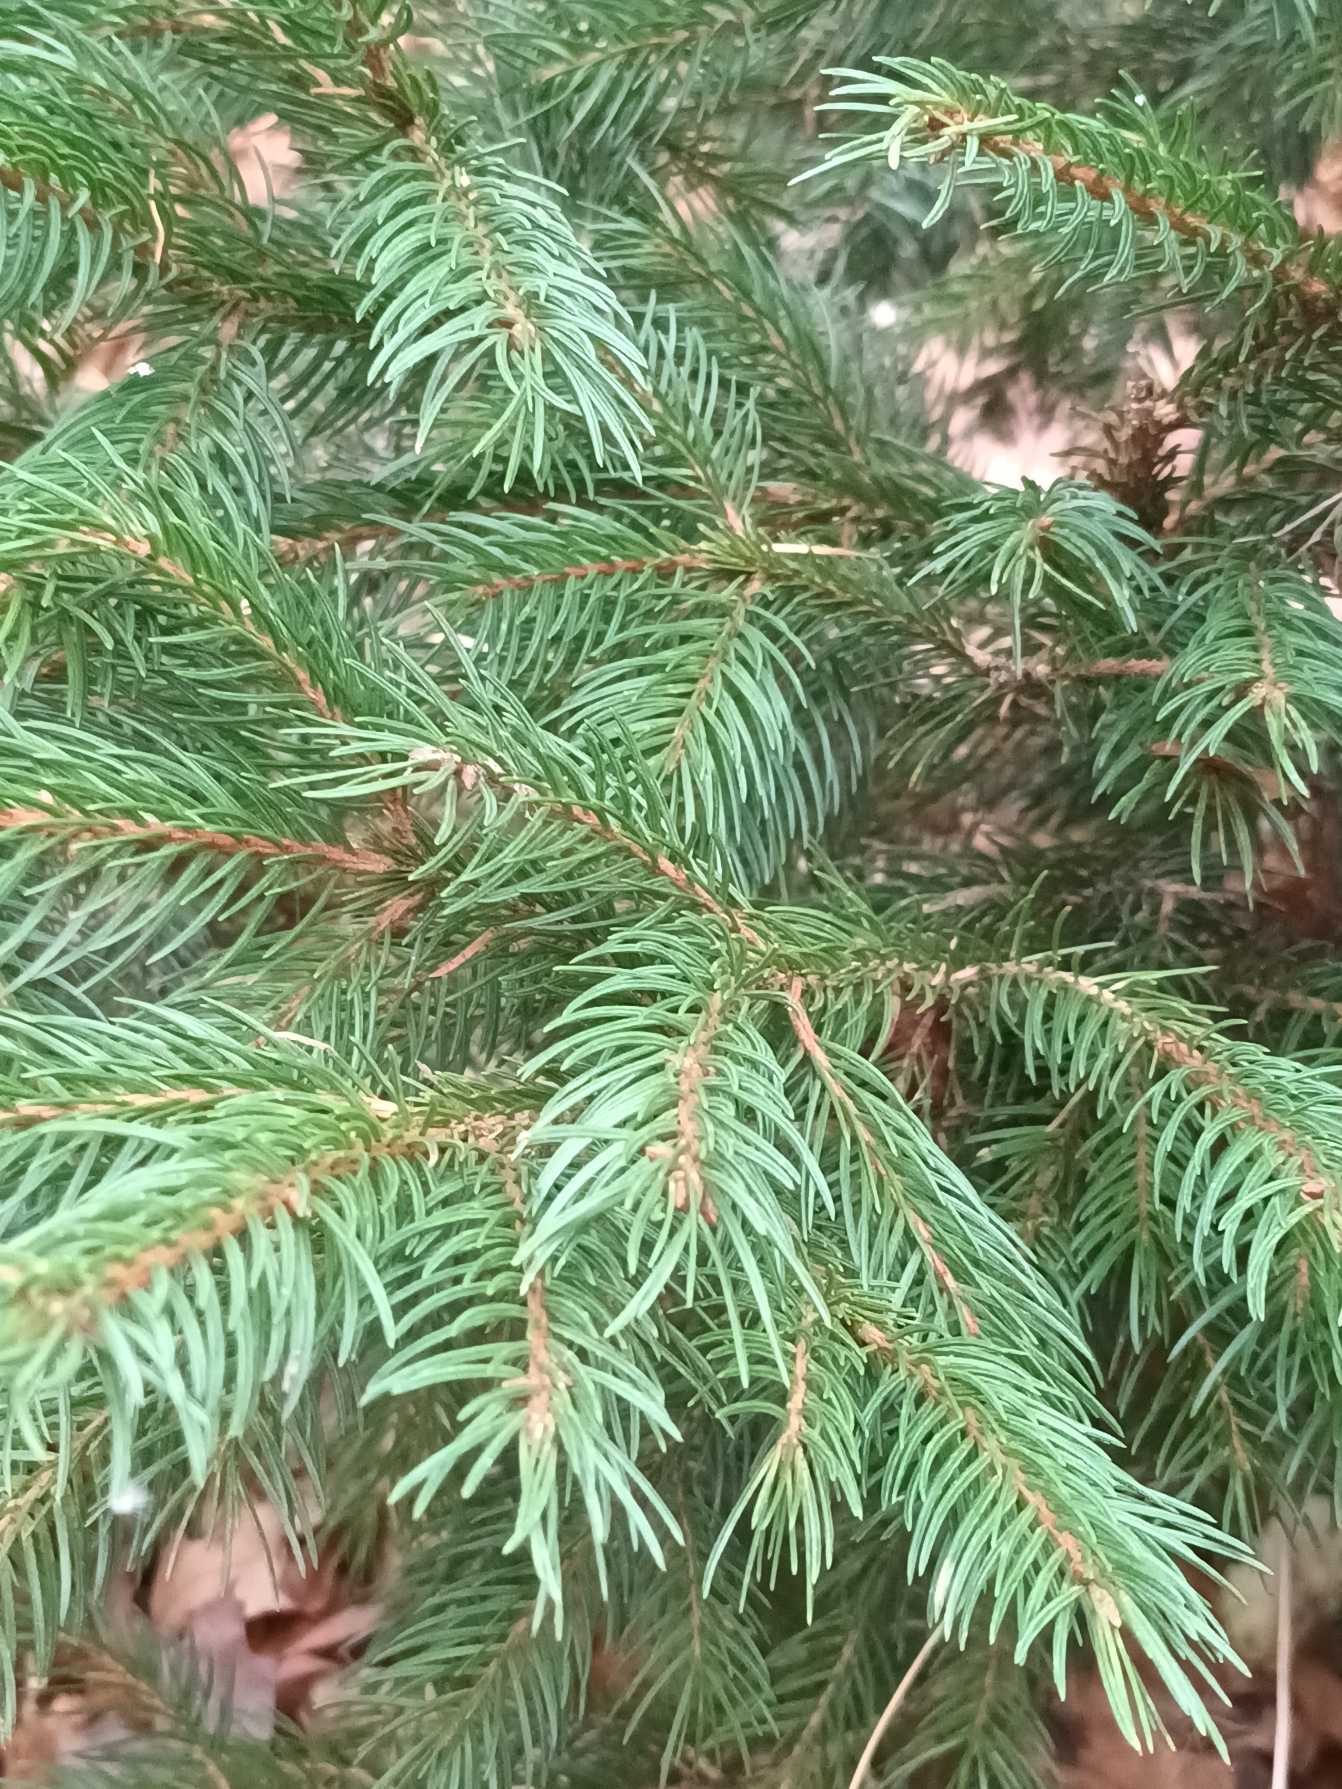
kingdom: Plantae
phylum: Tracheophyta
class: Pinopsida
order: Pinales
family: Pinaceae
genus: Picea
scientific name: Picea abies
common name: Rød-gran
